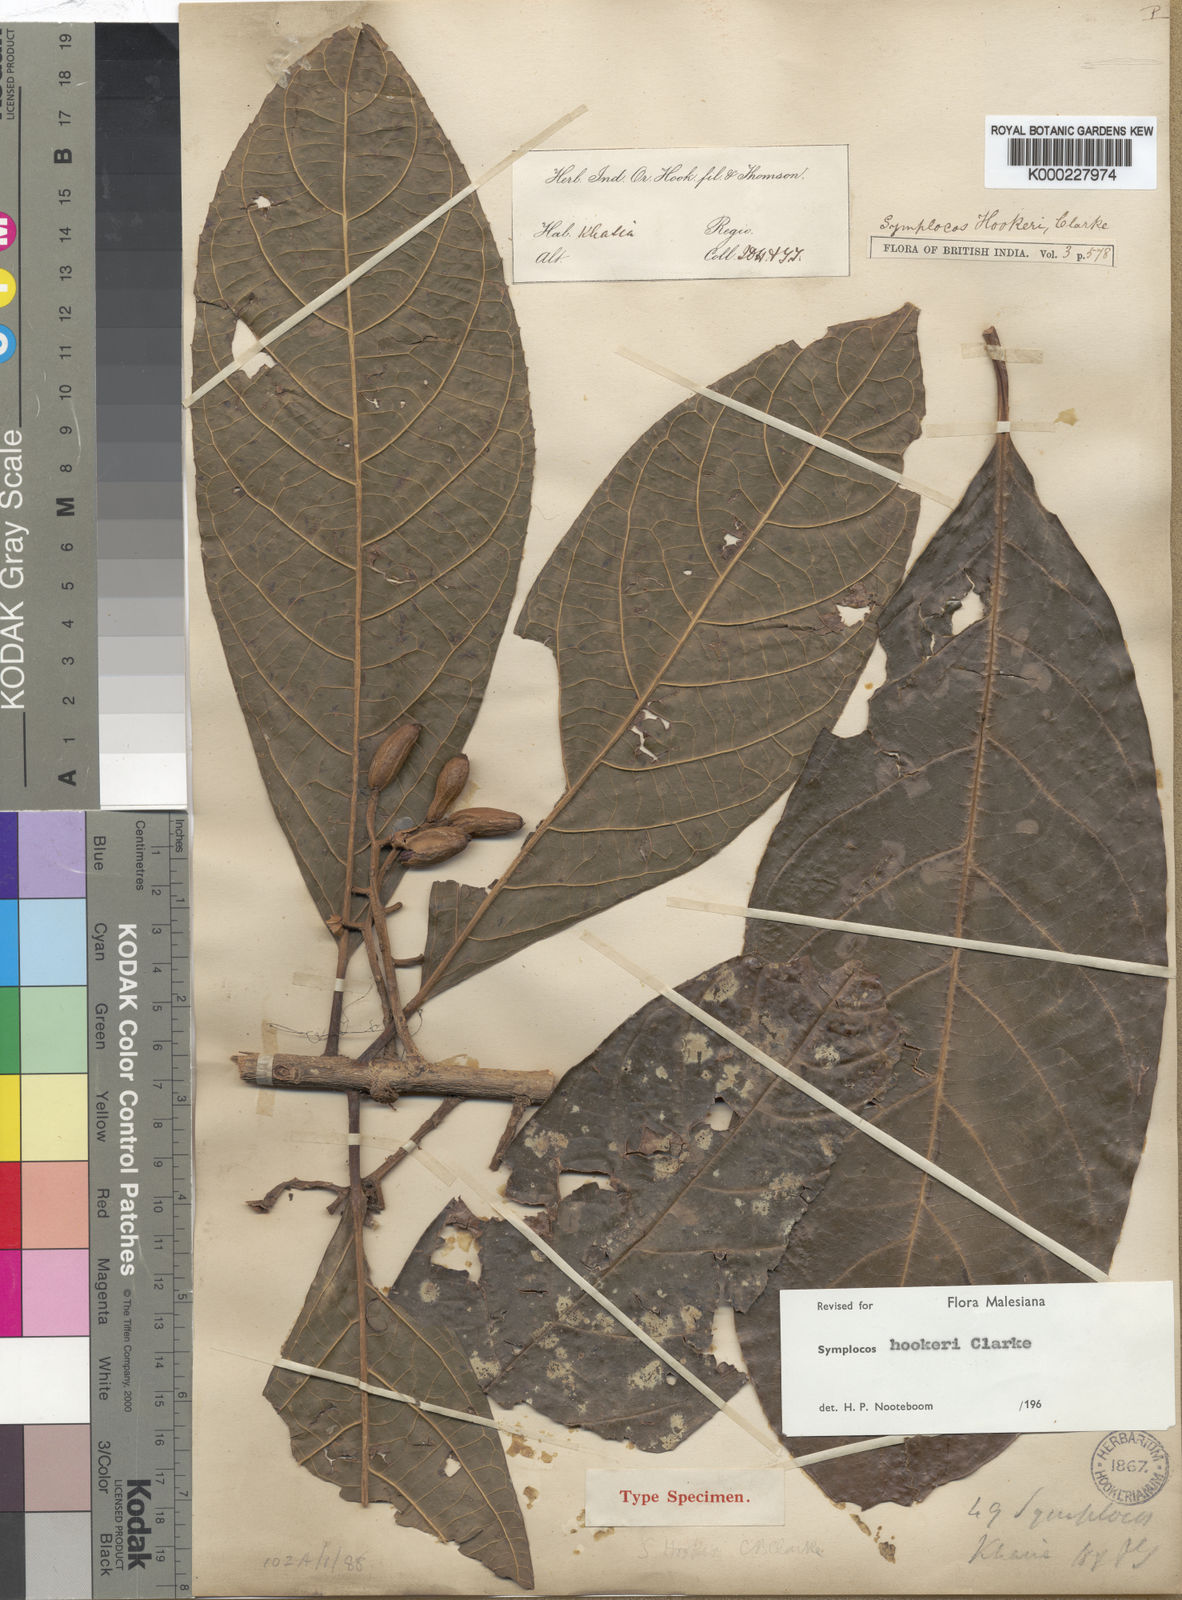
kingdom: Plantae
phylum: Tracheophyta
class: Magnoliopsida
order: Ericales
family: Symplocaceae
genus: Symplocos
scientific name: Symplocos hookeri
